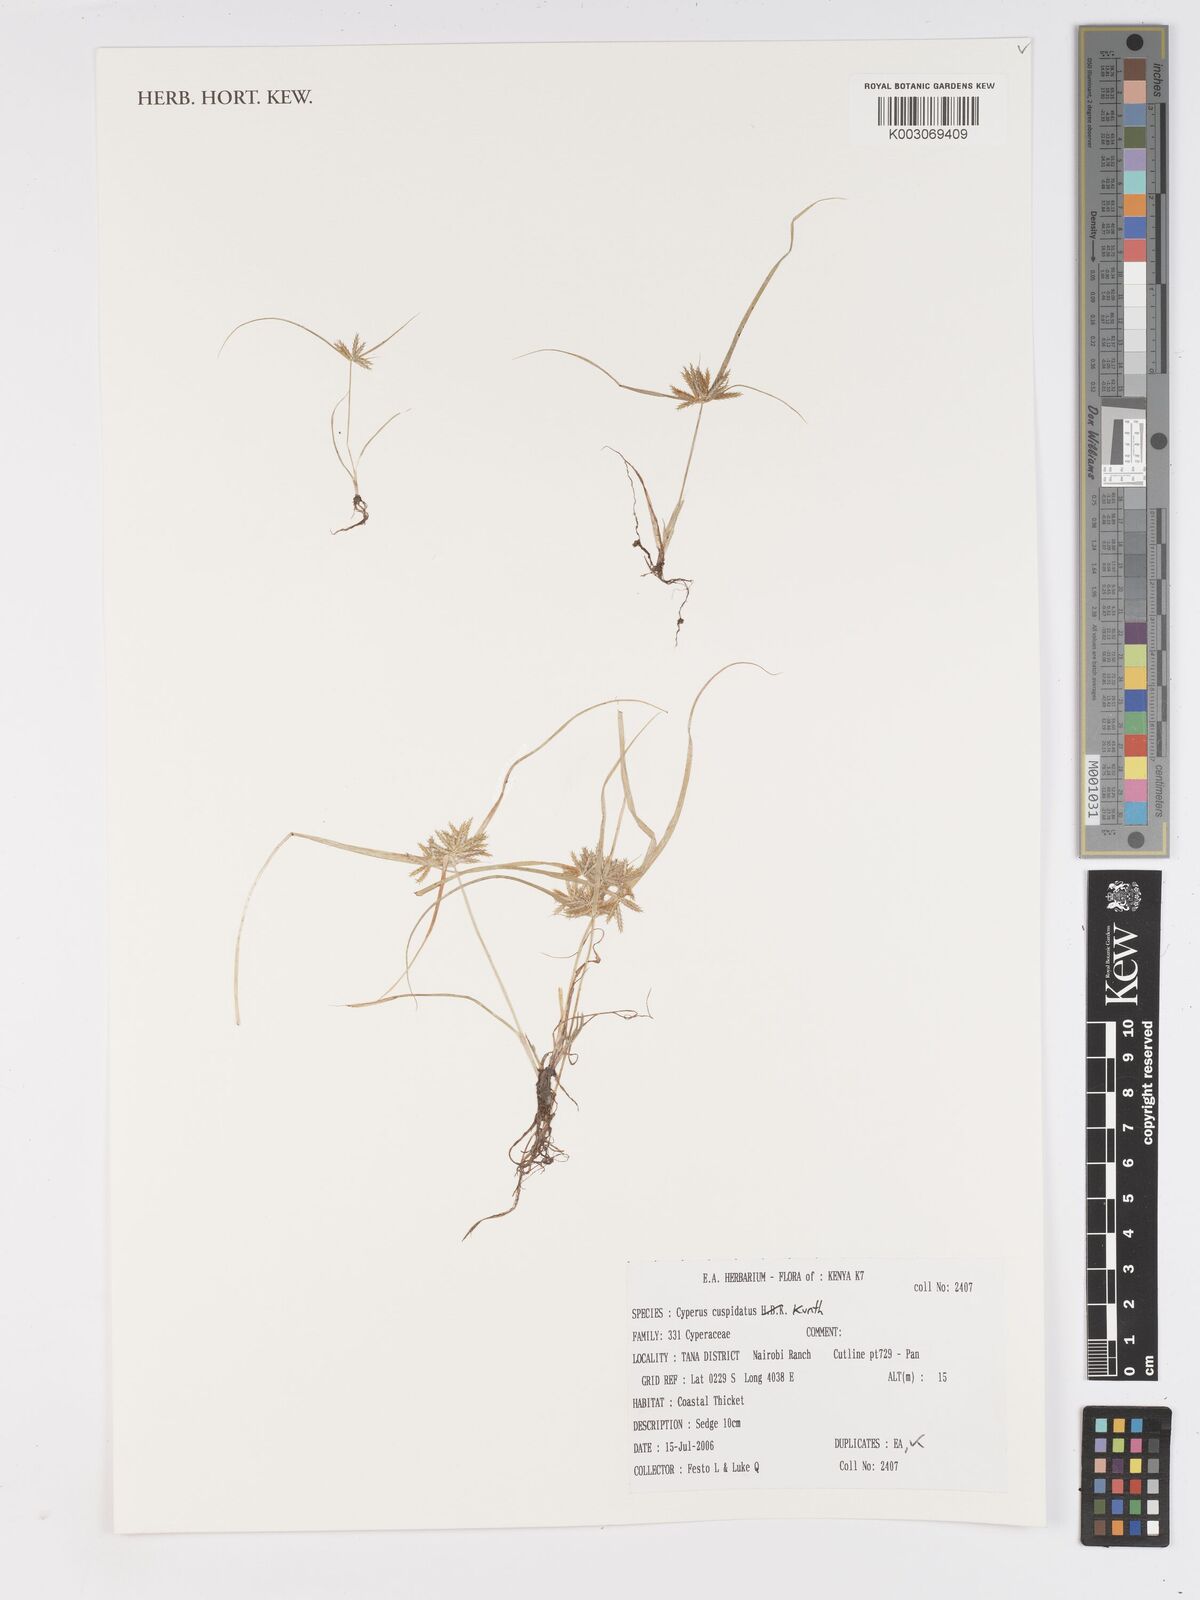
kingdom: Plantae
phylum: Tracheophyta
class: Liliopsida
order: Poales
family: Cyperaceae
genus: Cyperus
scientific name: Cyperus cuspidatus
